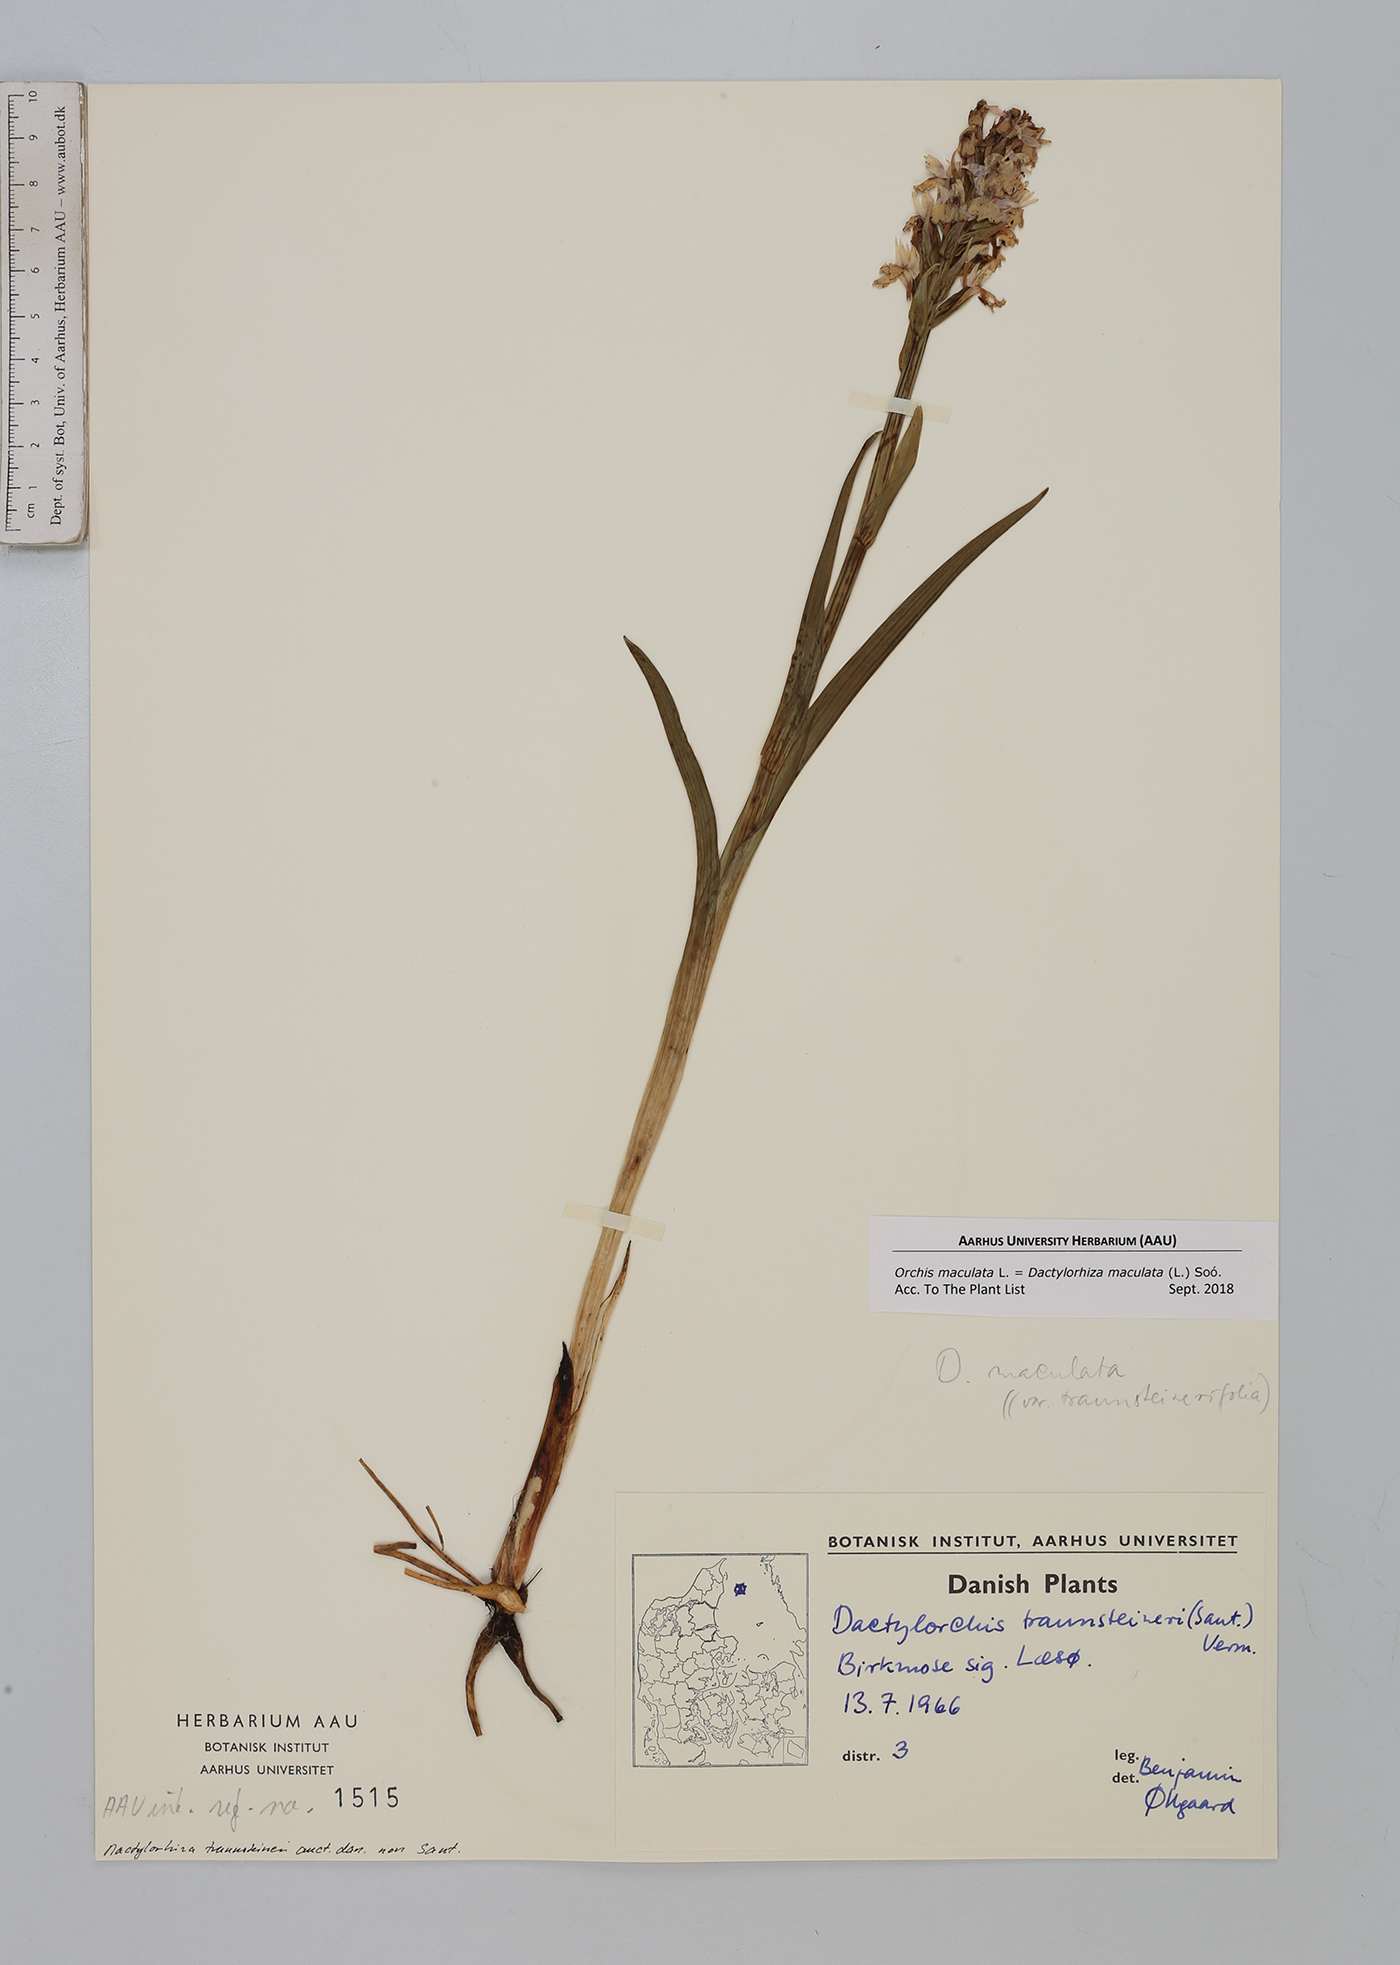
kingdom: Plantae
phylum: Tracheophyta
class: Liliopsida
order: Asparagales
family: Orchidaceae
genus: Dactylorhiza
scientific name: Dactylorhiza maculata
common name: Heath spotted-orchid
